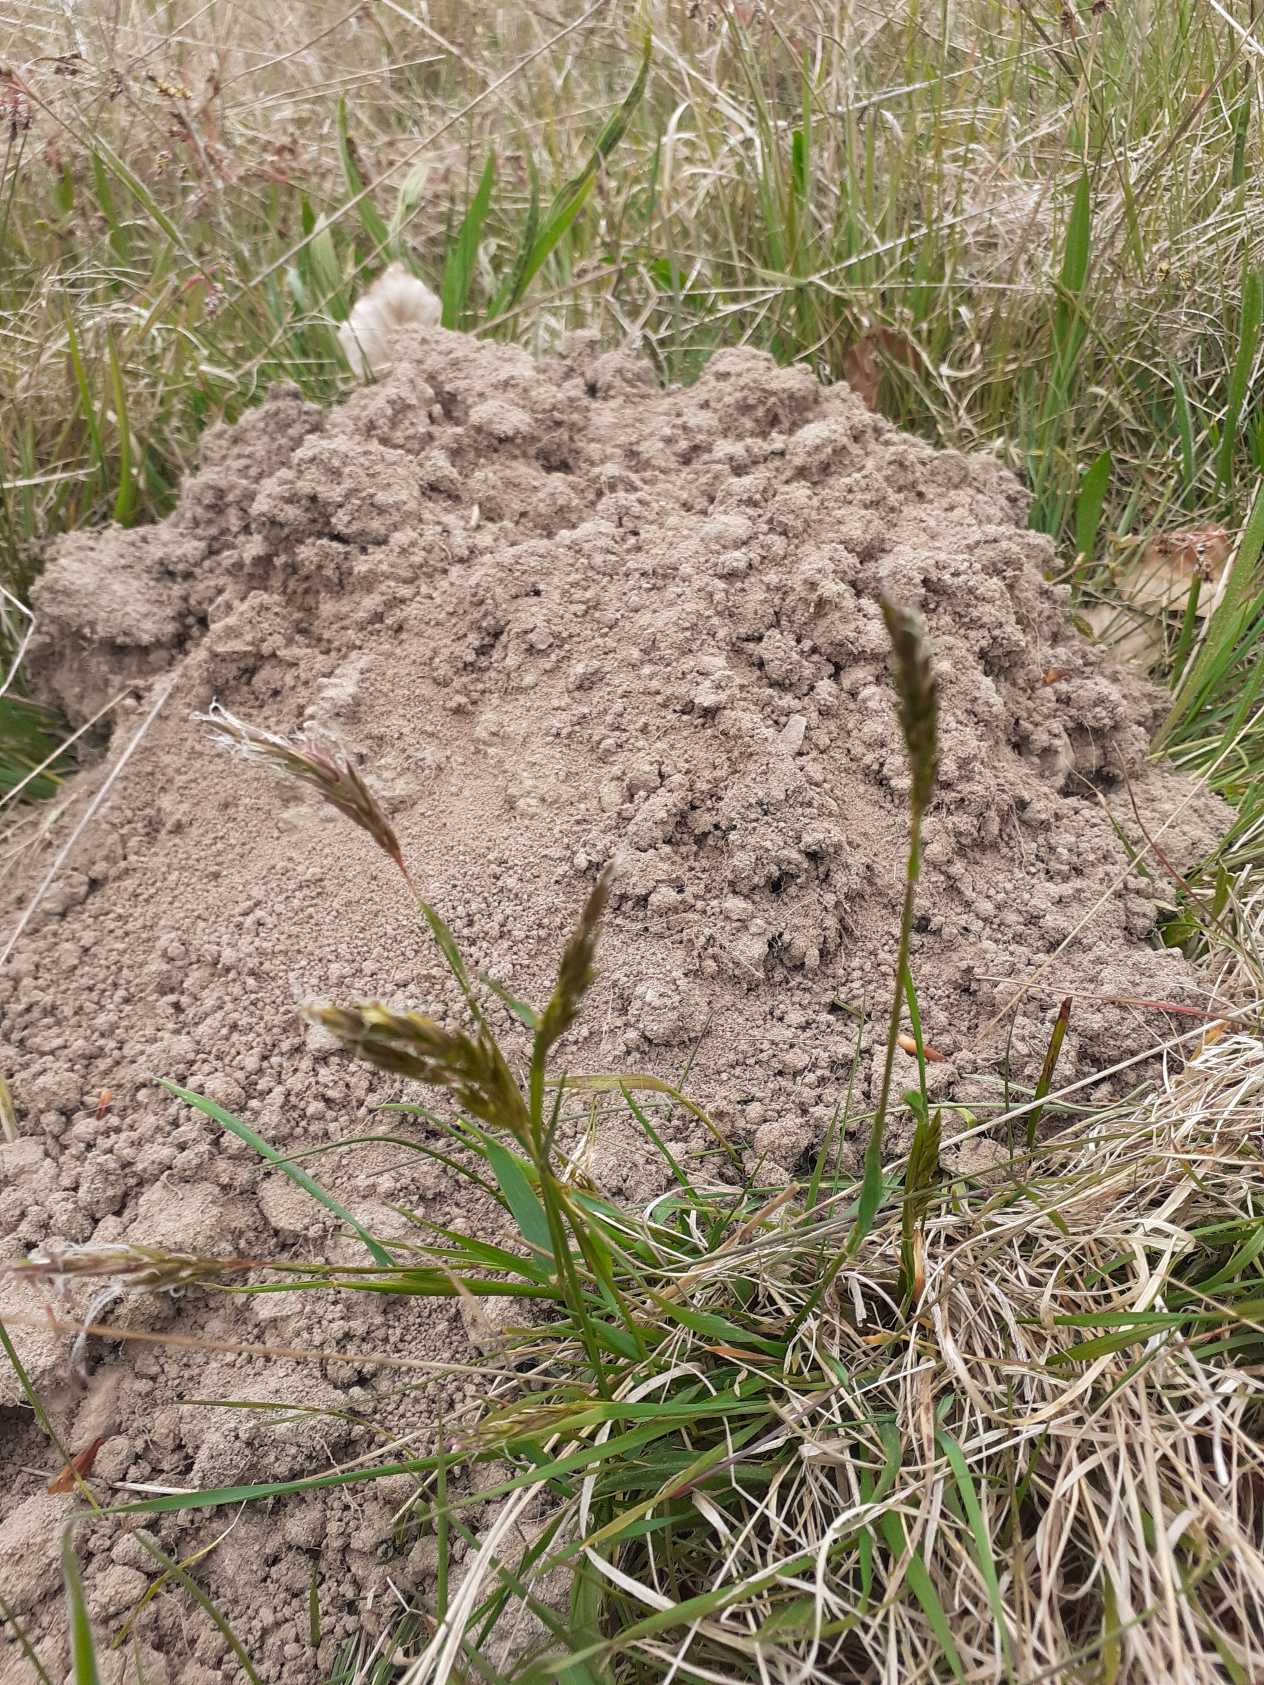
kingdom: Plantae
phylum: Tracheophyta
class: Liliopsida
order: Poales
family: Poaceae
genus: Anthoxanthum
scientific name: Anthoxanthum odoratum
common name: Vellugtende gulaks
